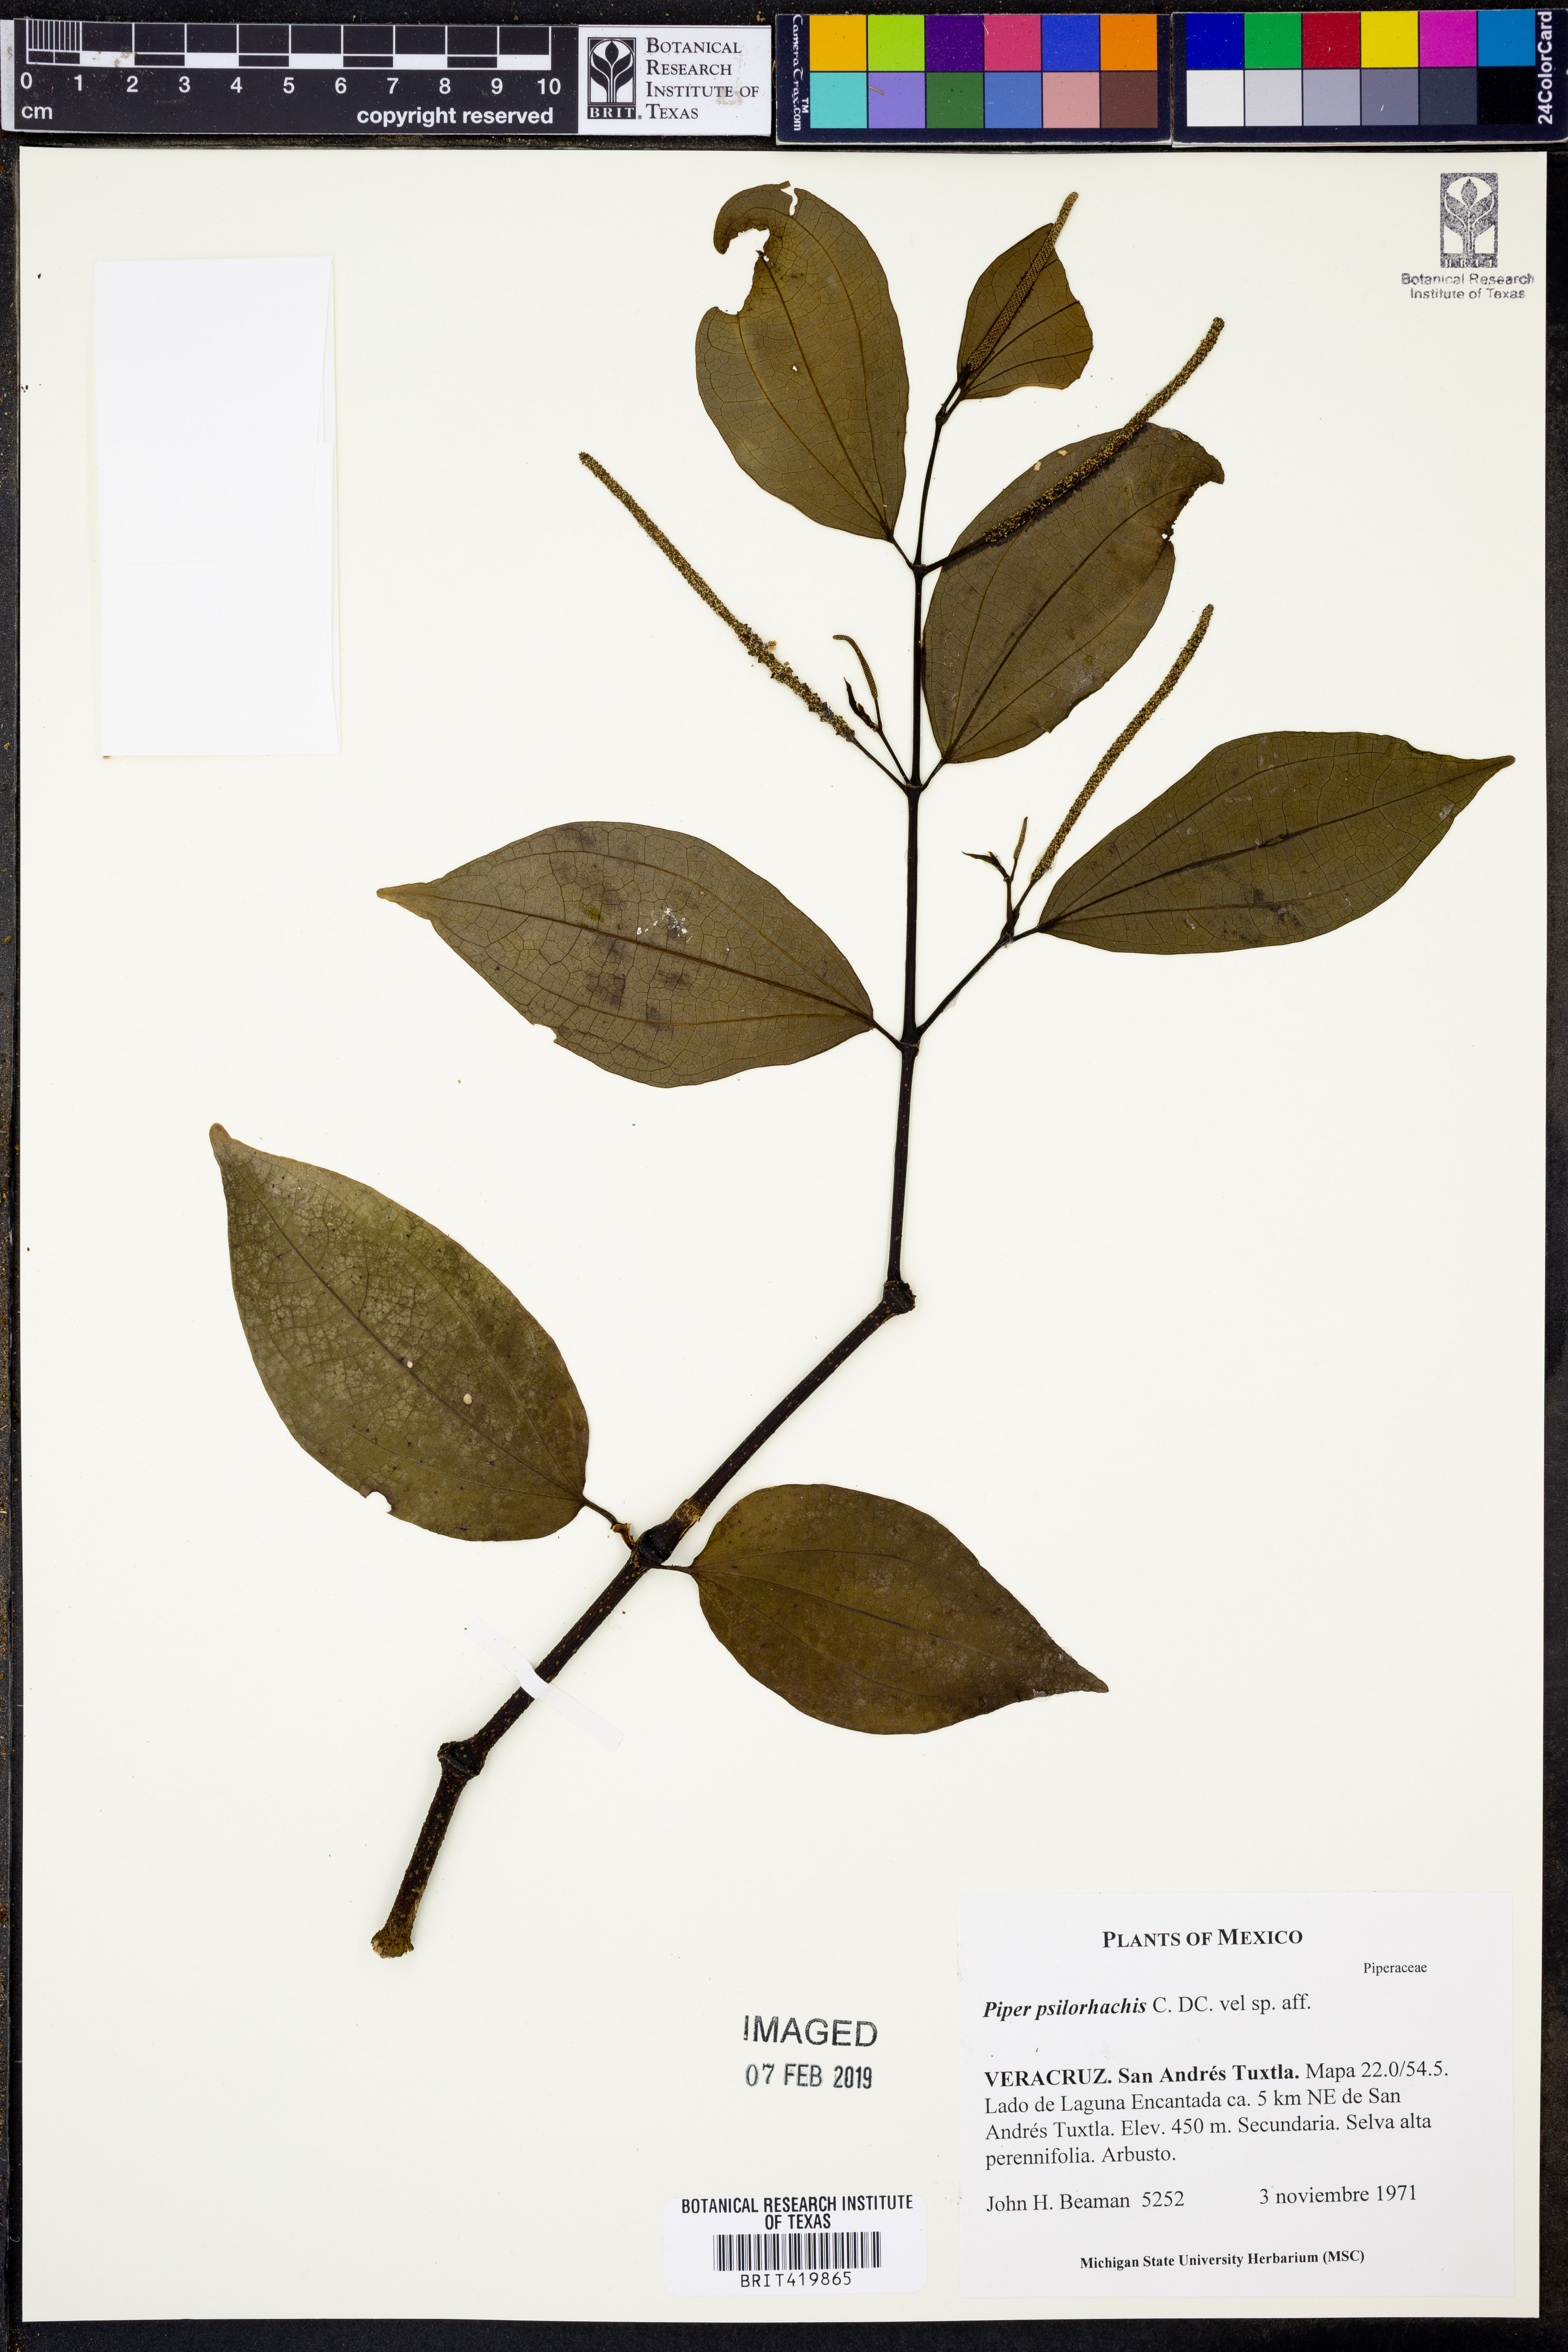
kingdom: Plantae
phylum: Tracheophyta
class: Magnoliopsida
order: Piperales
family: Piperaceae
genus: Piper
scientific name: Piper psilorhachis
